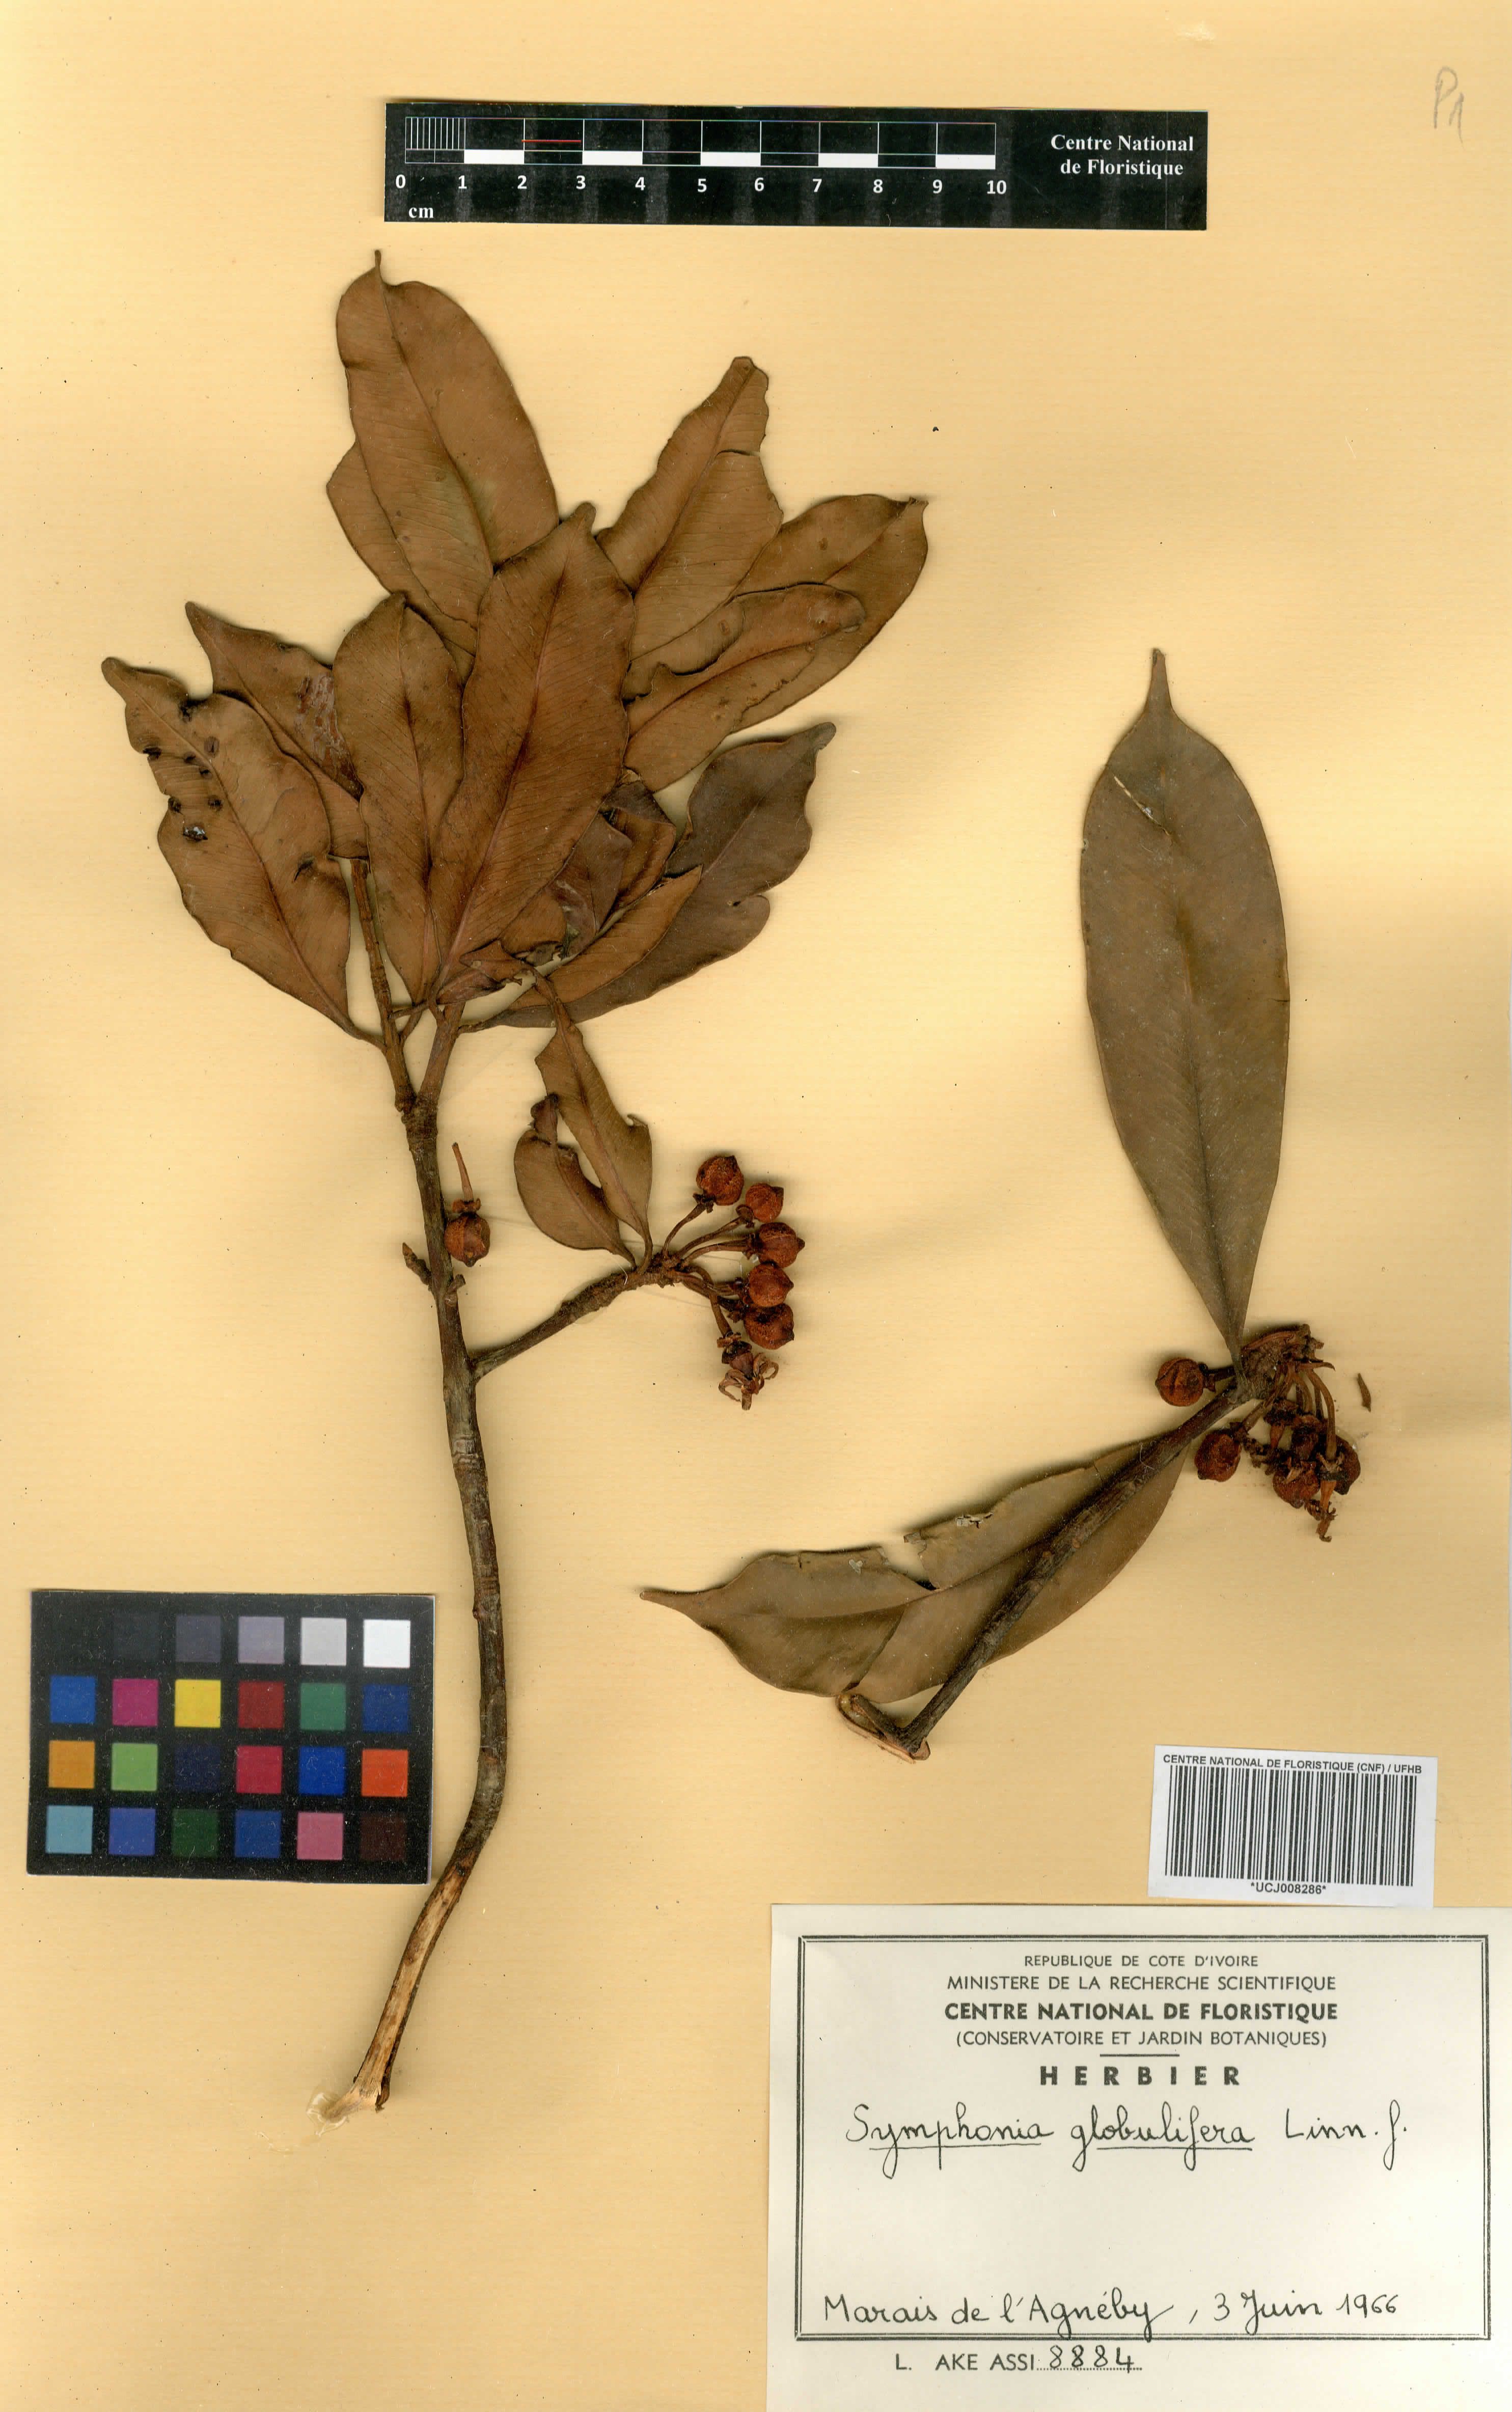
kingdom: Plantae
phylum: Tracheophyta
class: Magnoliopsida
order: Malpighiales
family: Clusiaceae
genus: Symphonia
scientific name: Symphonia globulifera
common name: Boarwood
